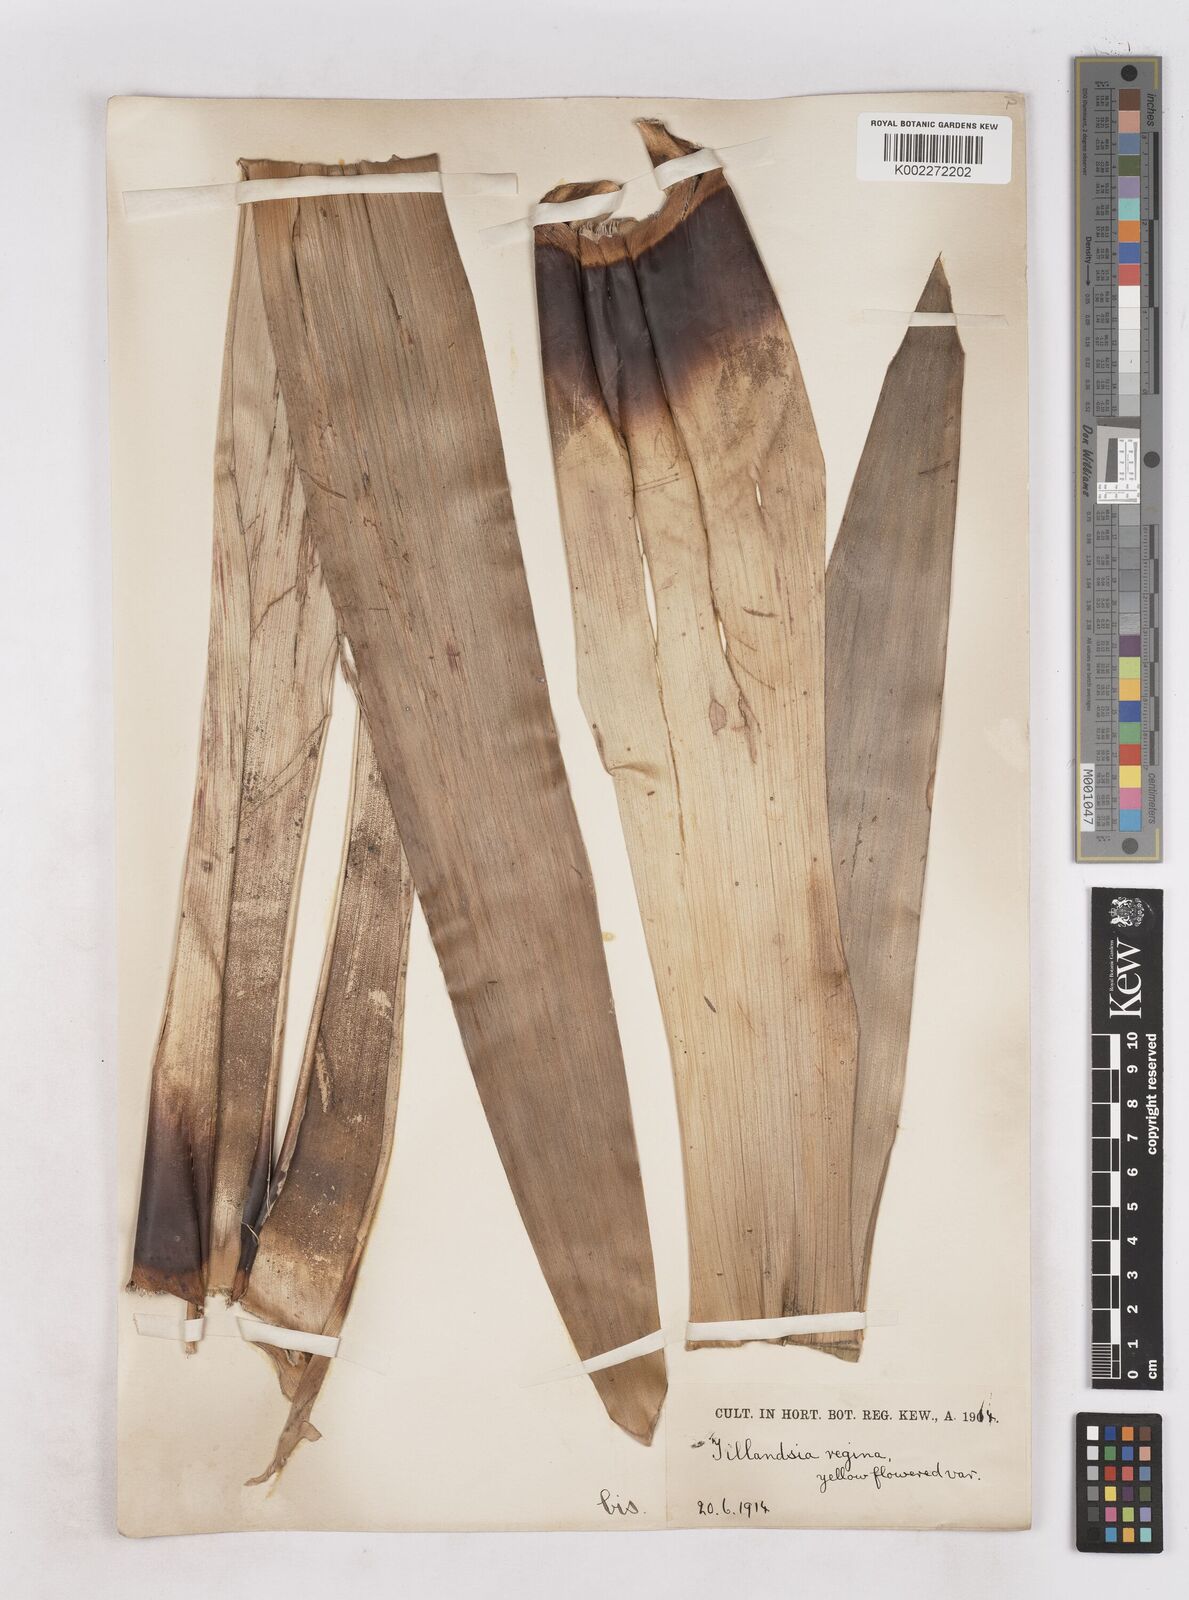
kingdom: Plantae
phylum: Tracheophyta
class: Liliopsida
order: Poales
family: Bromeliaceae
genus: Alcantarea
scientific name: Alcantarea regina
